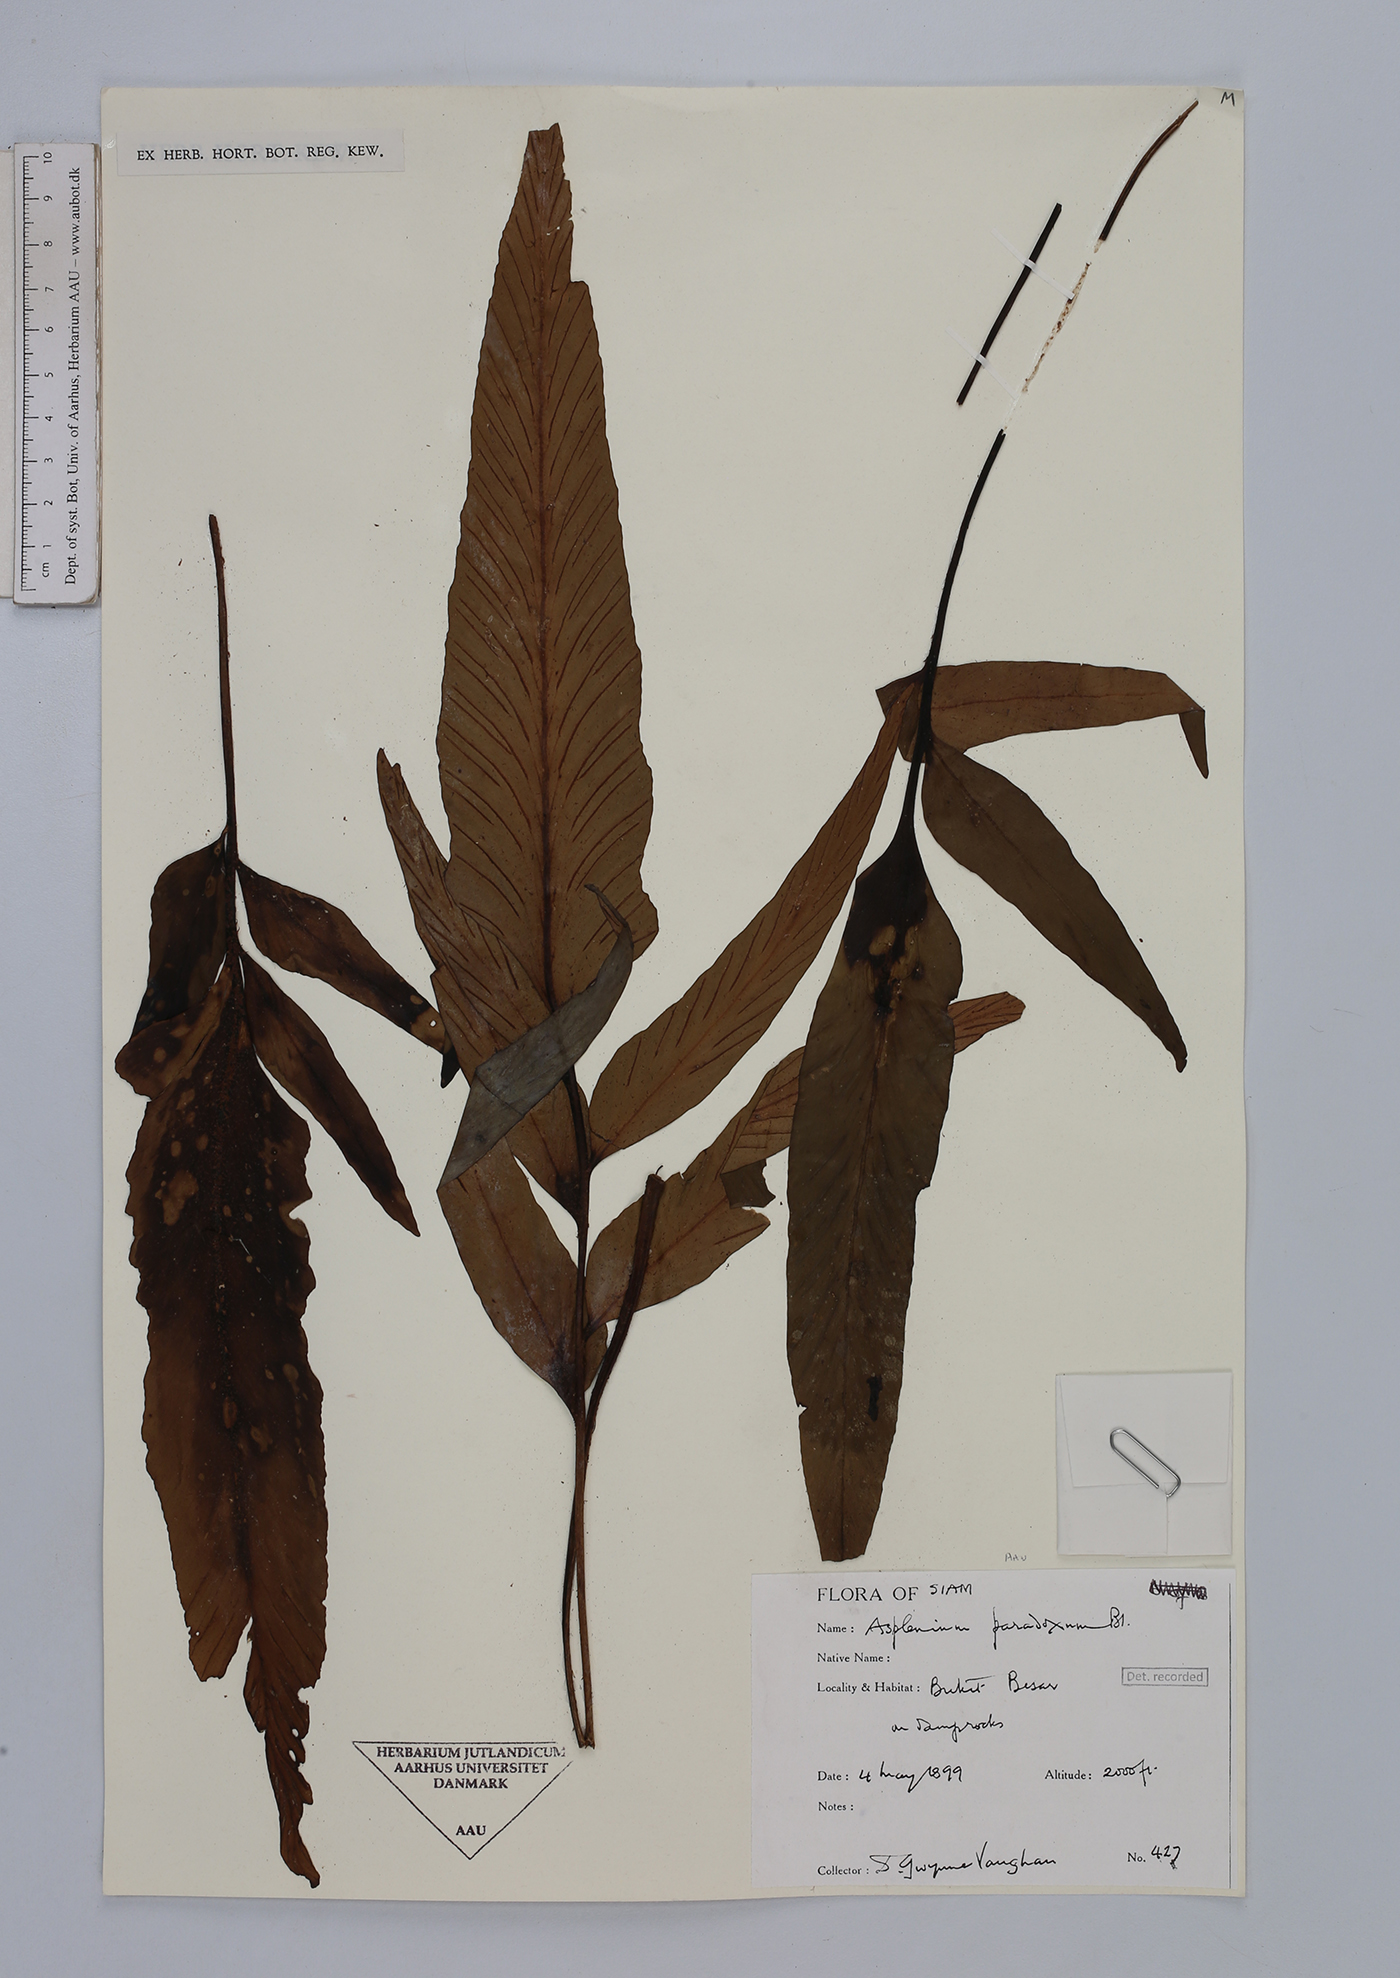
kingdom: Plantae
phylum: Tracheophyta
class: Polypodiopsida
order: Polypodiales
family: Aspleniaceae
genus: Asplenium
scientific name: Asplenium falcatum
